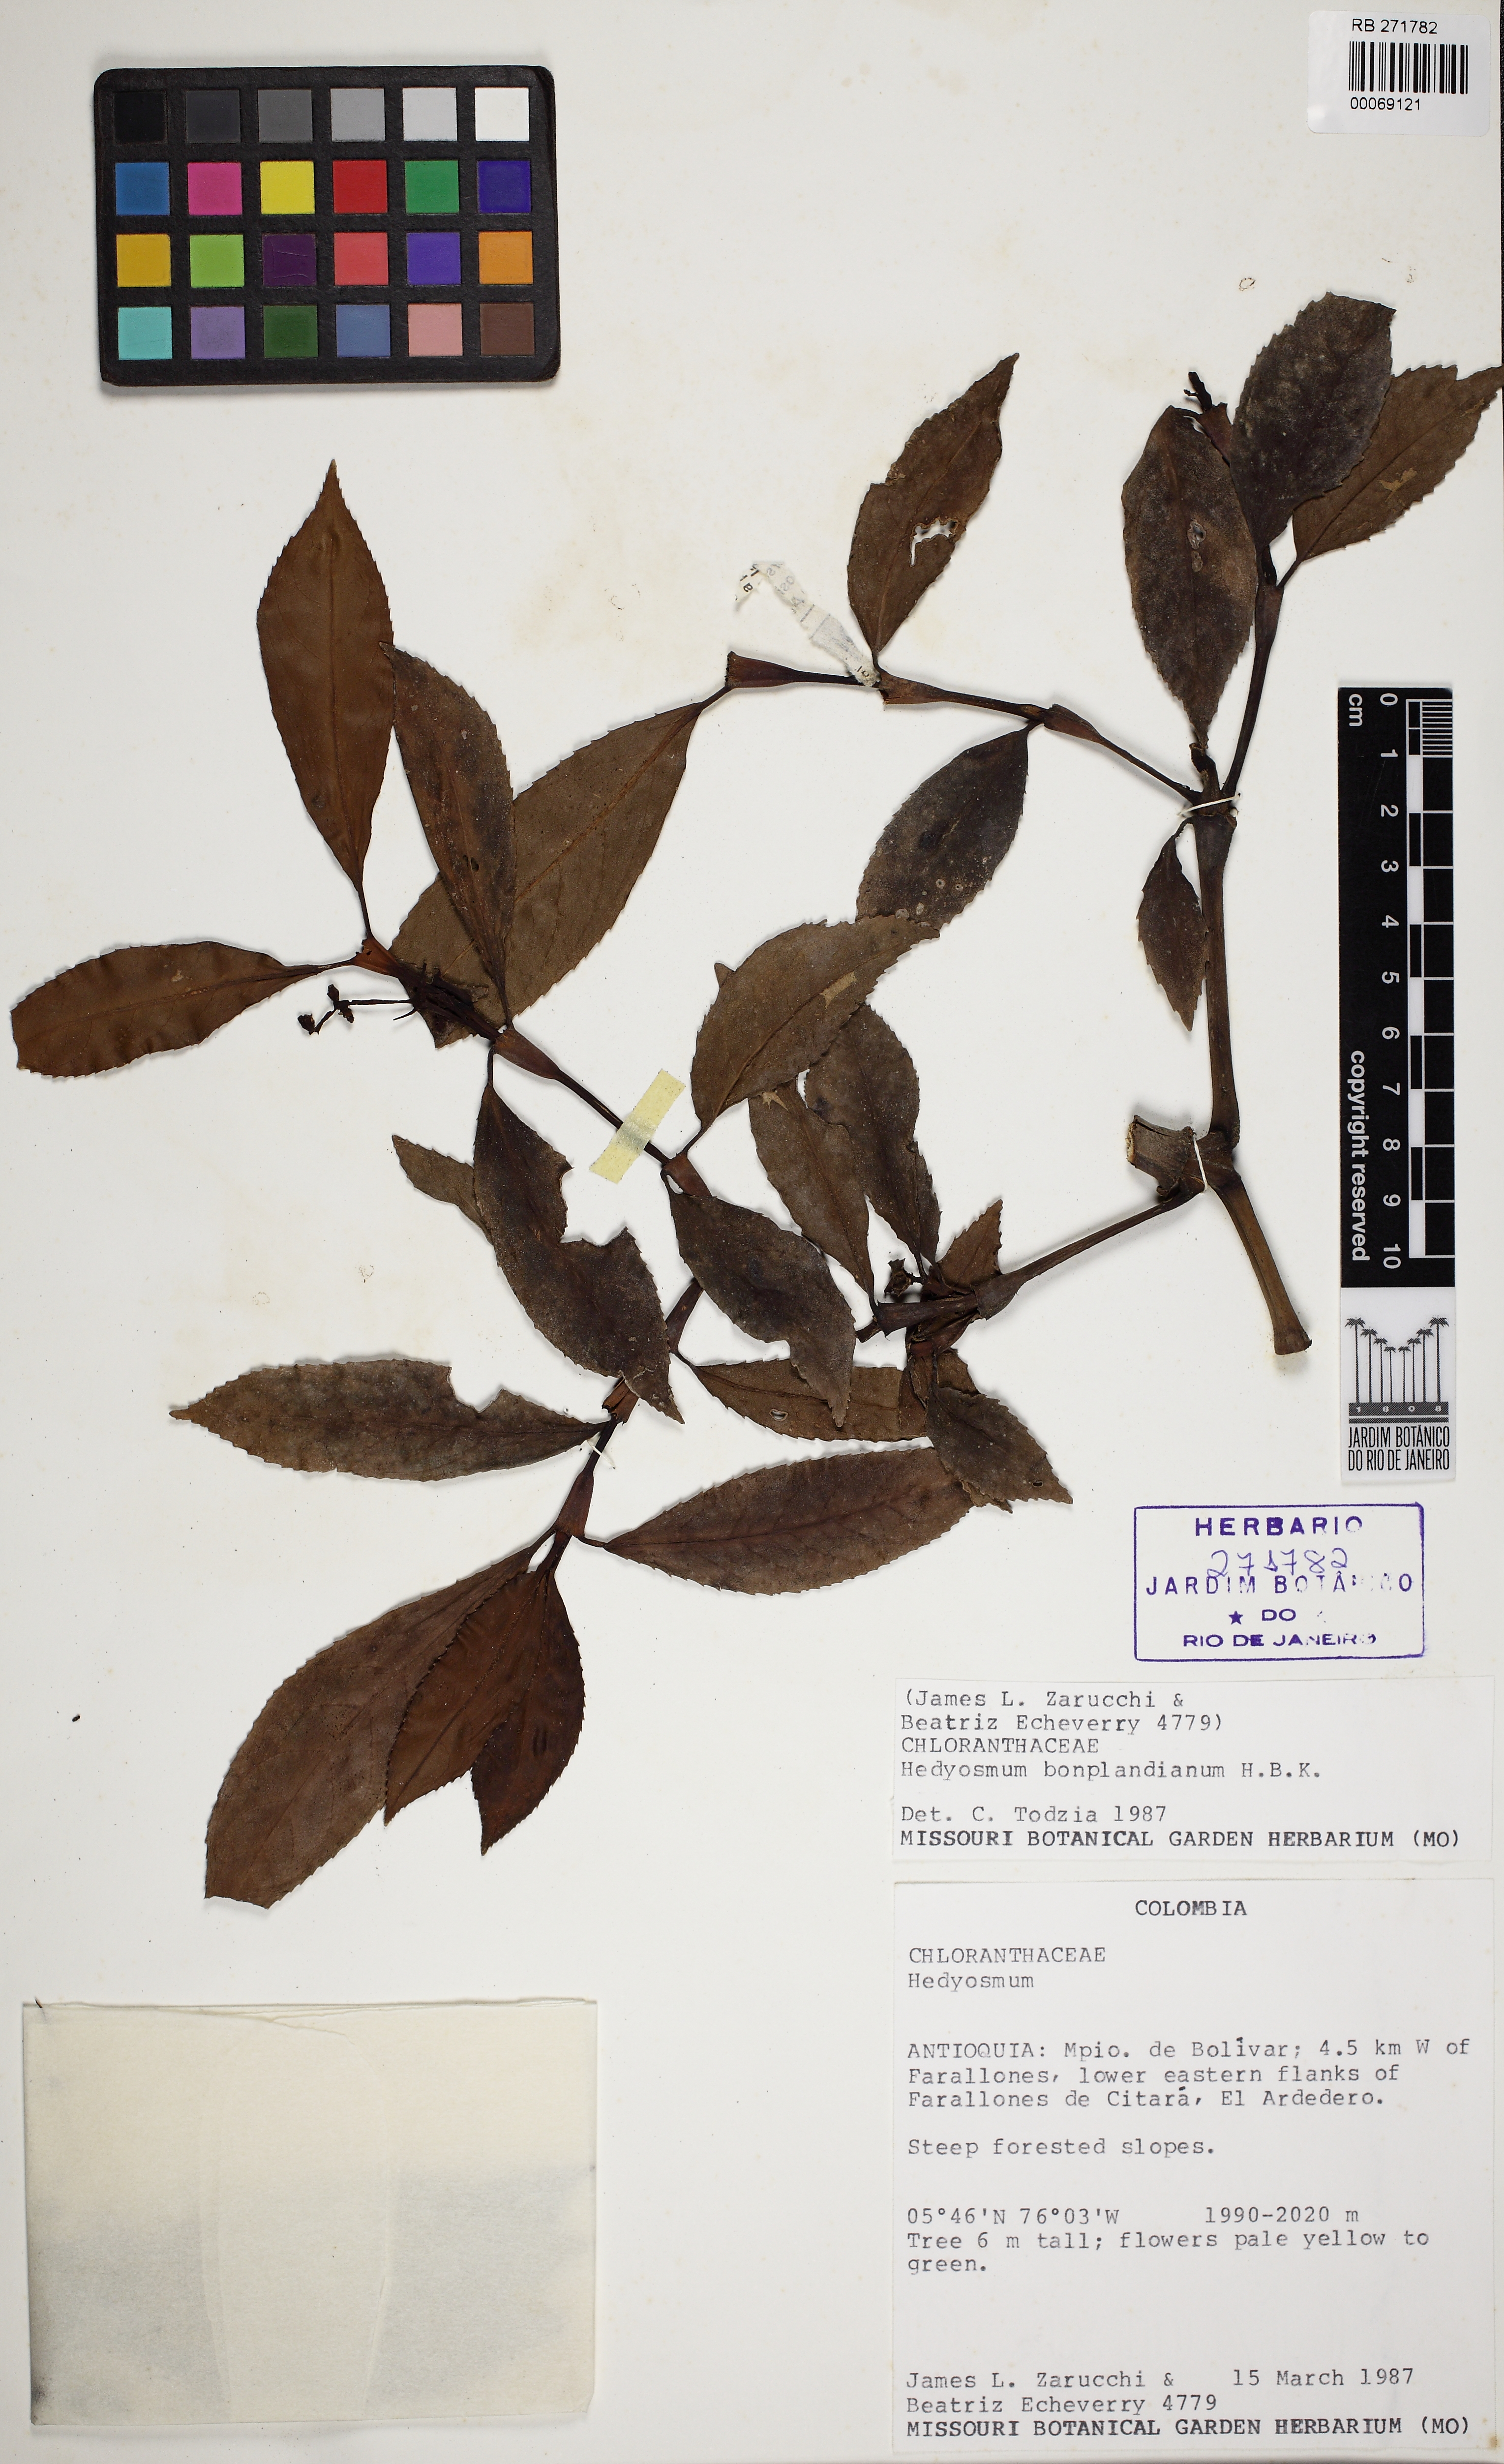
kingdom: Plantae
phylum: Tracheophyta
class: Magnoliopsida
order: Chloranthales
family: Chloranthaceae
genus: Hedyosmum
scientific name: Hedyosmum bonplandianum
